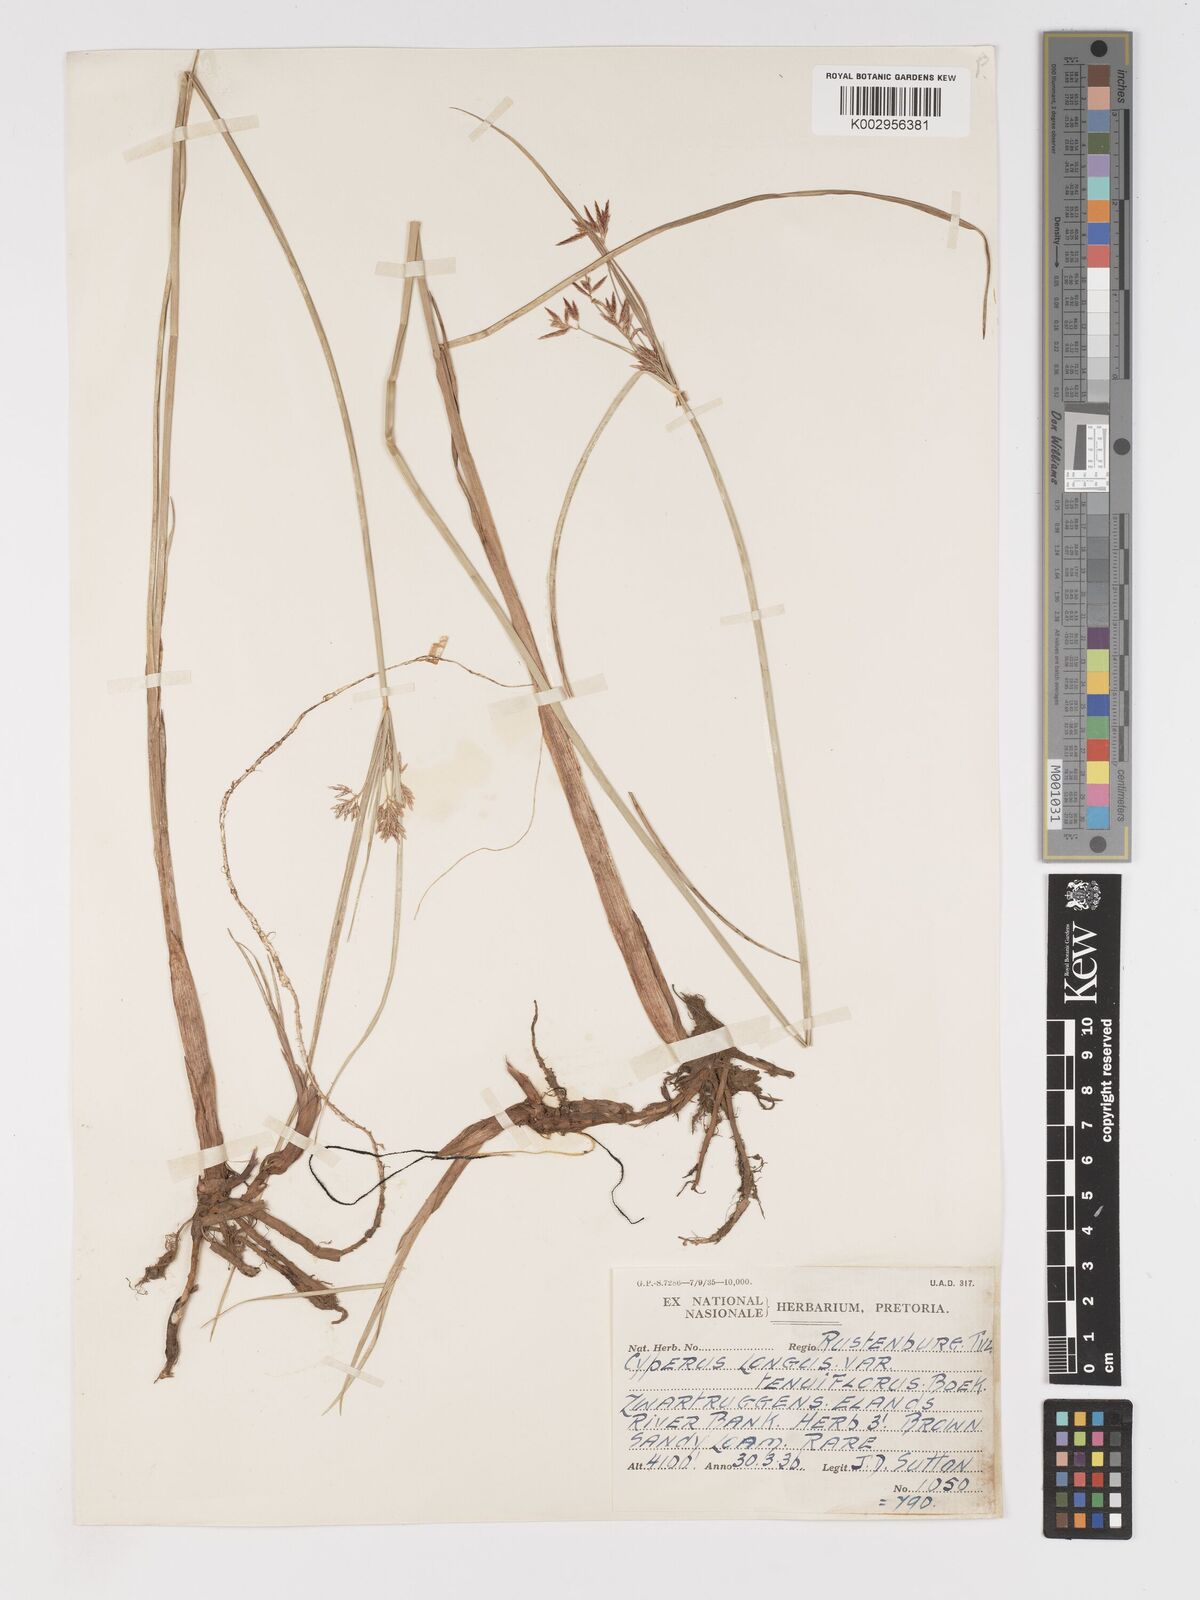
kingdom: Plantae
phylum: Tracheophyta
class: Liliopsida
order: Poales
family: Cyperaceae
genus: Cyperus
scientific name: Cyperus longus
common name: Galingale
